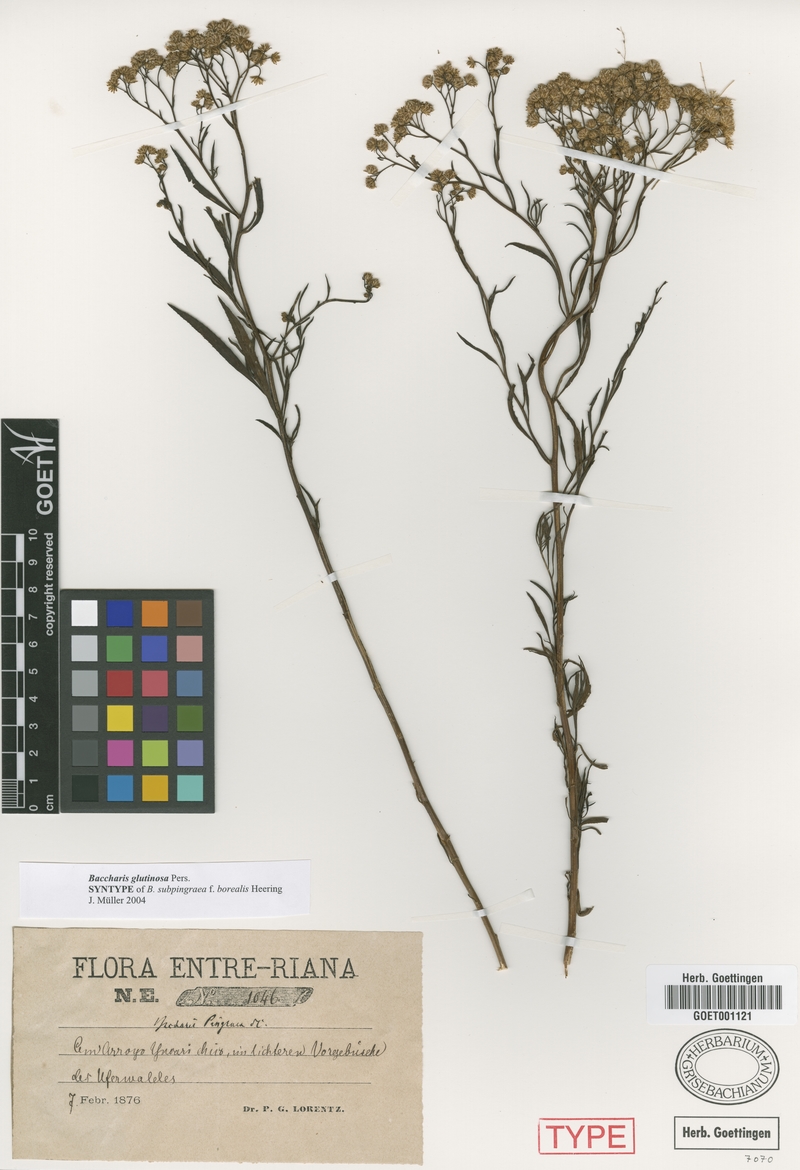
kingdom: Plantae
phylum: Tracheophyta
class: Magnoliopsida
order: Asterales
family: Asteraceae
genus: Baccharis
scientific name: Baccharis glutinosa
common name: Saltmarsh baccharis
